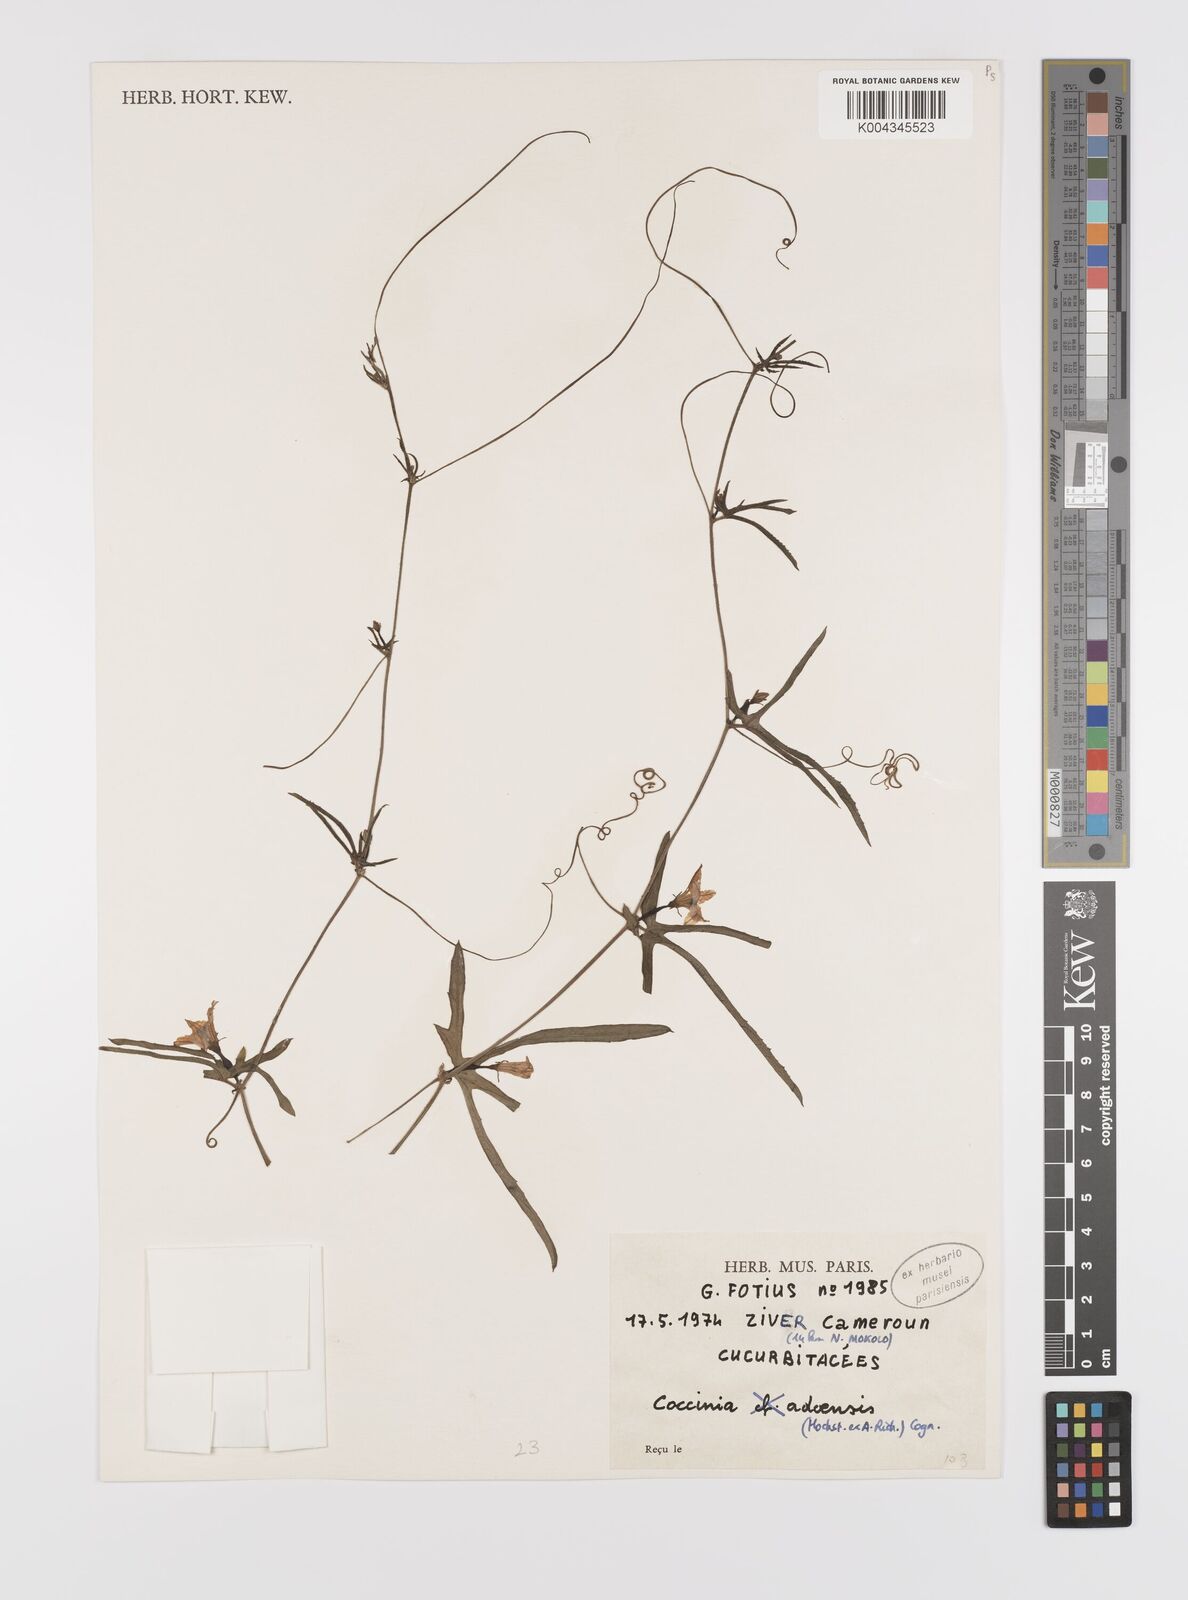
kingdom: Plantae
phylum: Tracheophyta
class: Magnoliopsida
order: Cucurbitales
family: Cucurbitaceae
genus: Coccinia
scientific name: Coccinia adoensis
